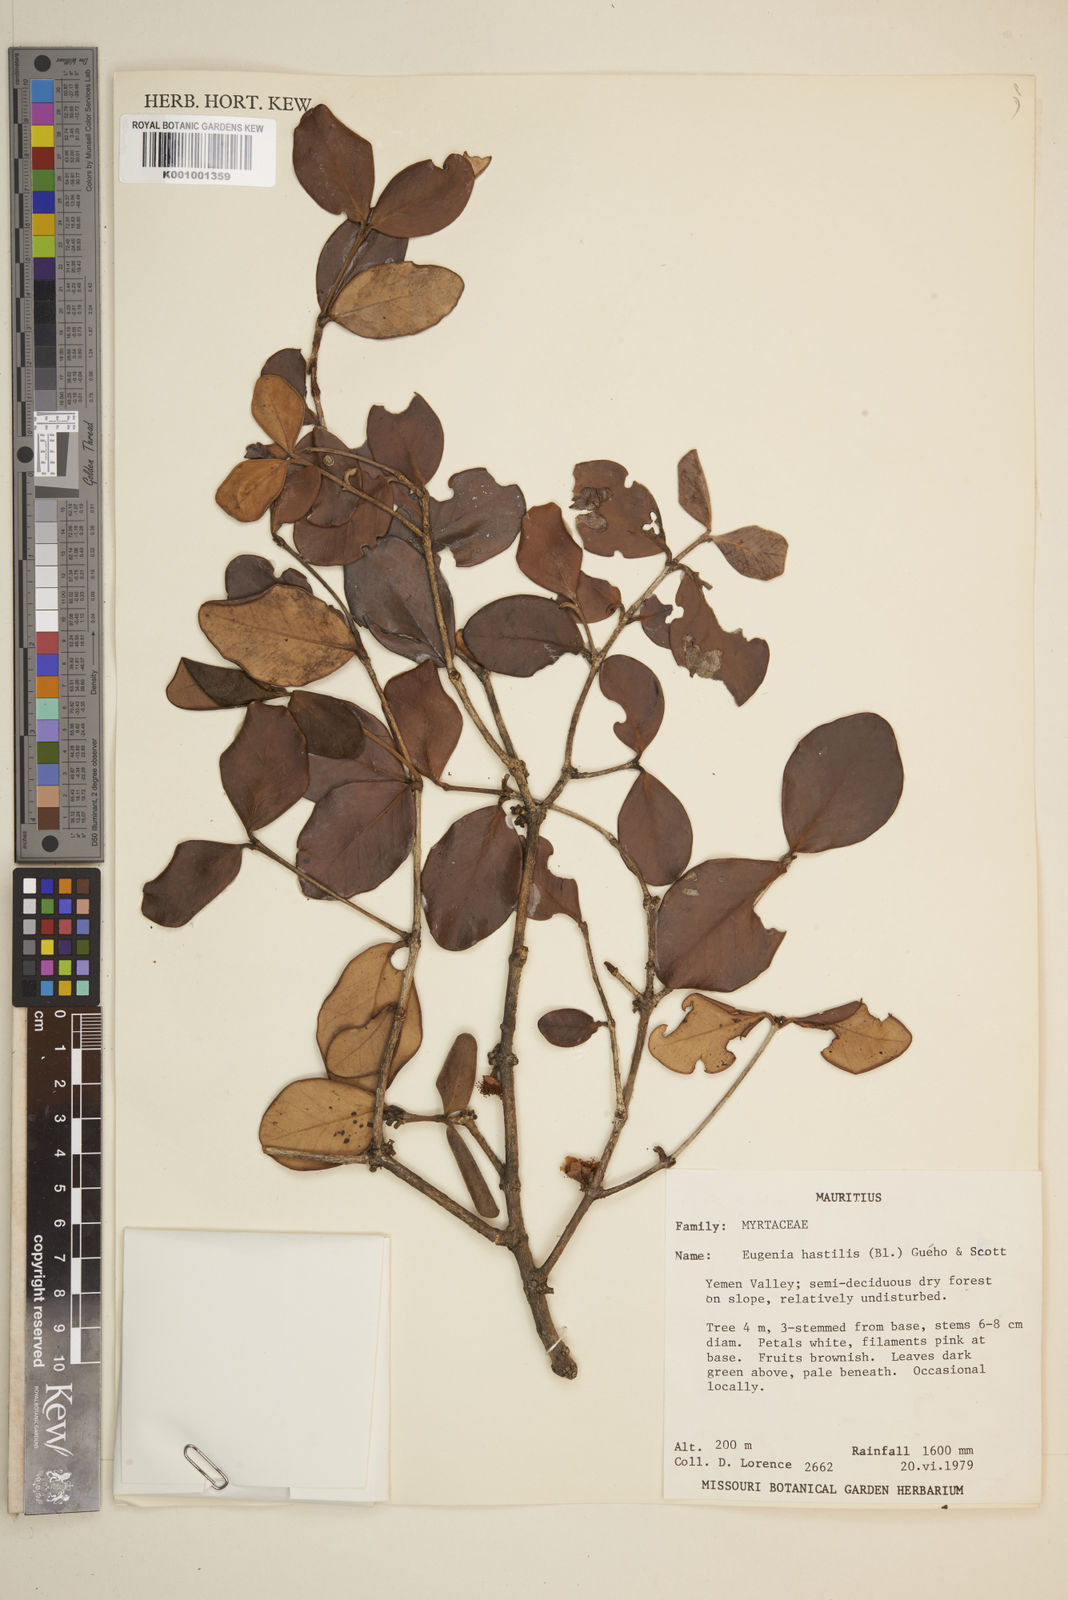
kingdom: Plantae
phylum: Tracheophyta
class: Magnoliopsida
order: Myrtales
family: Myrtaceae
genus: Eugenia
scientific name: Eugenia
